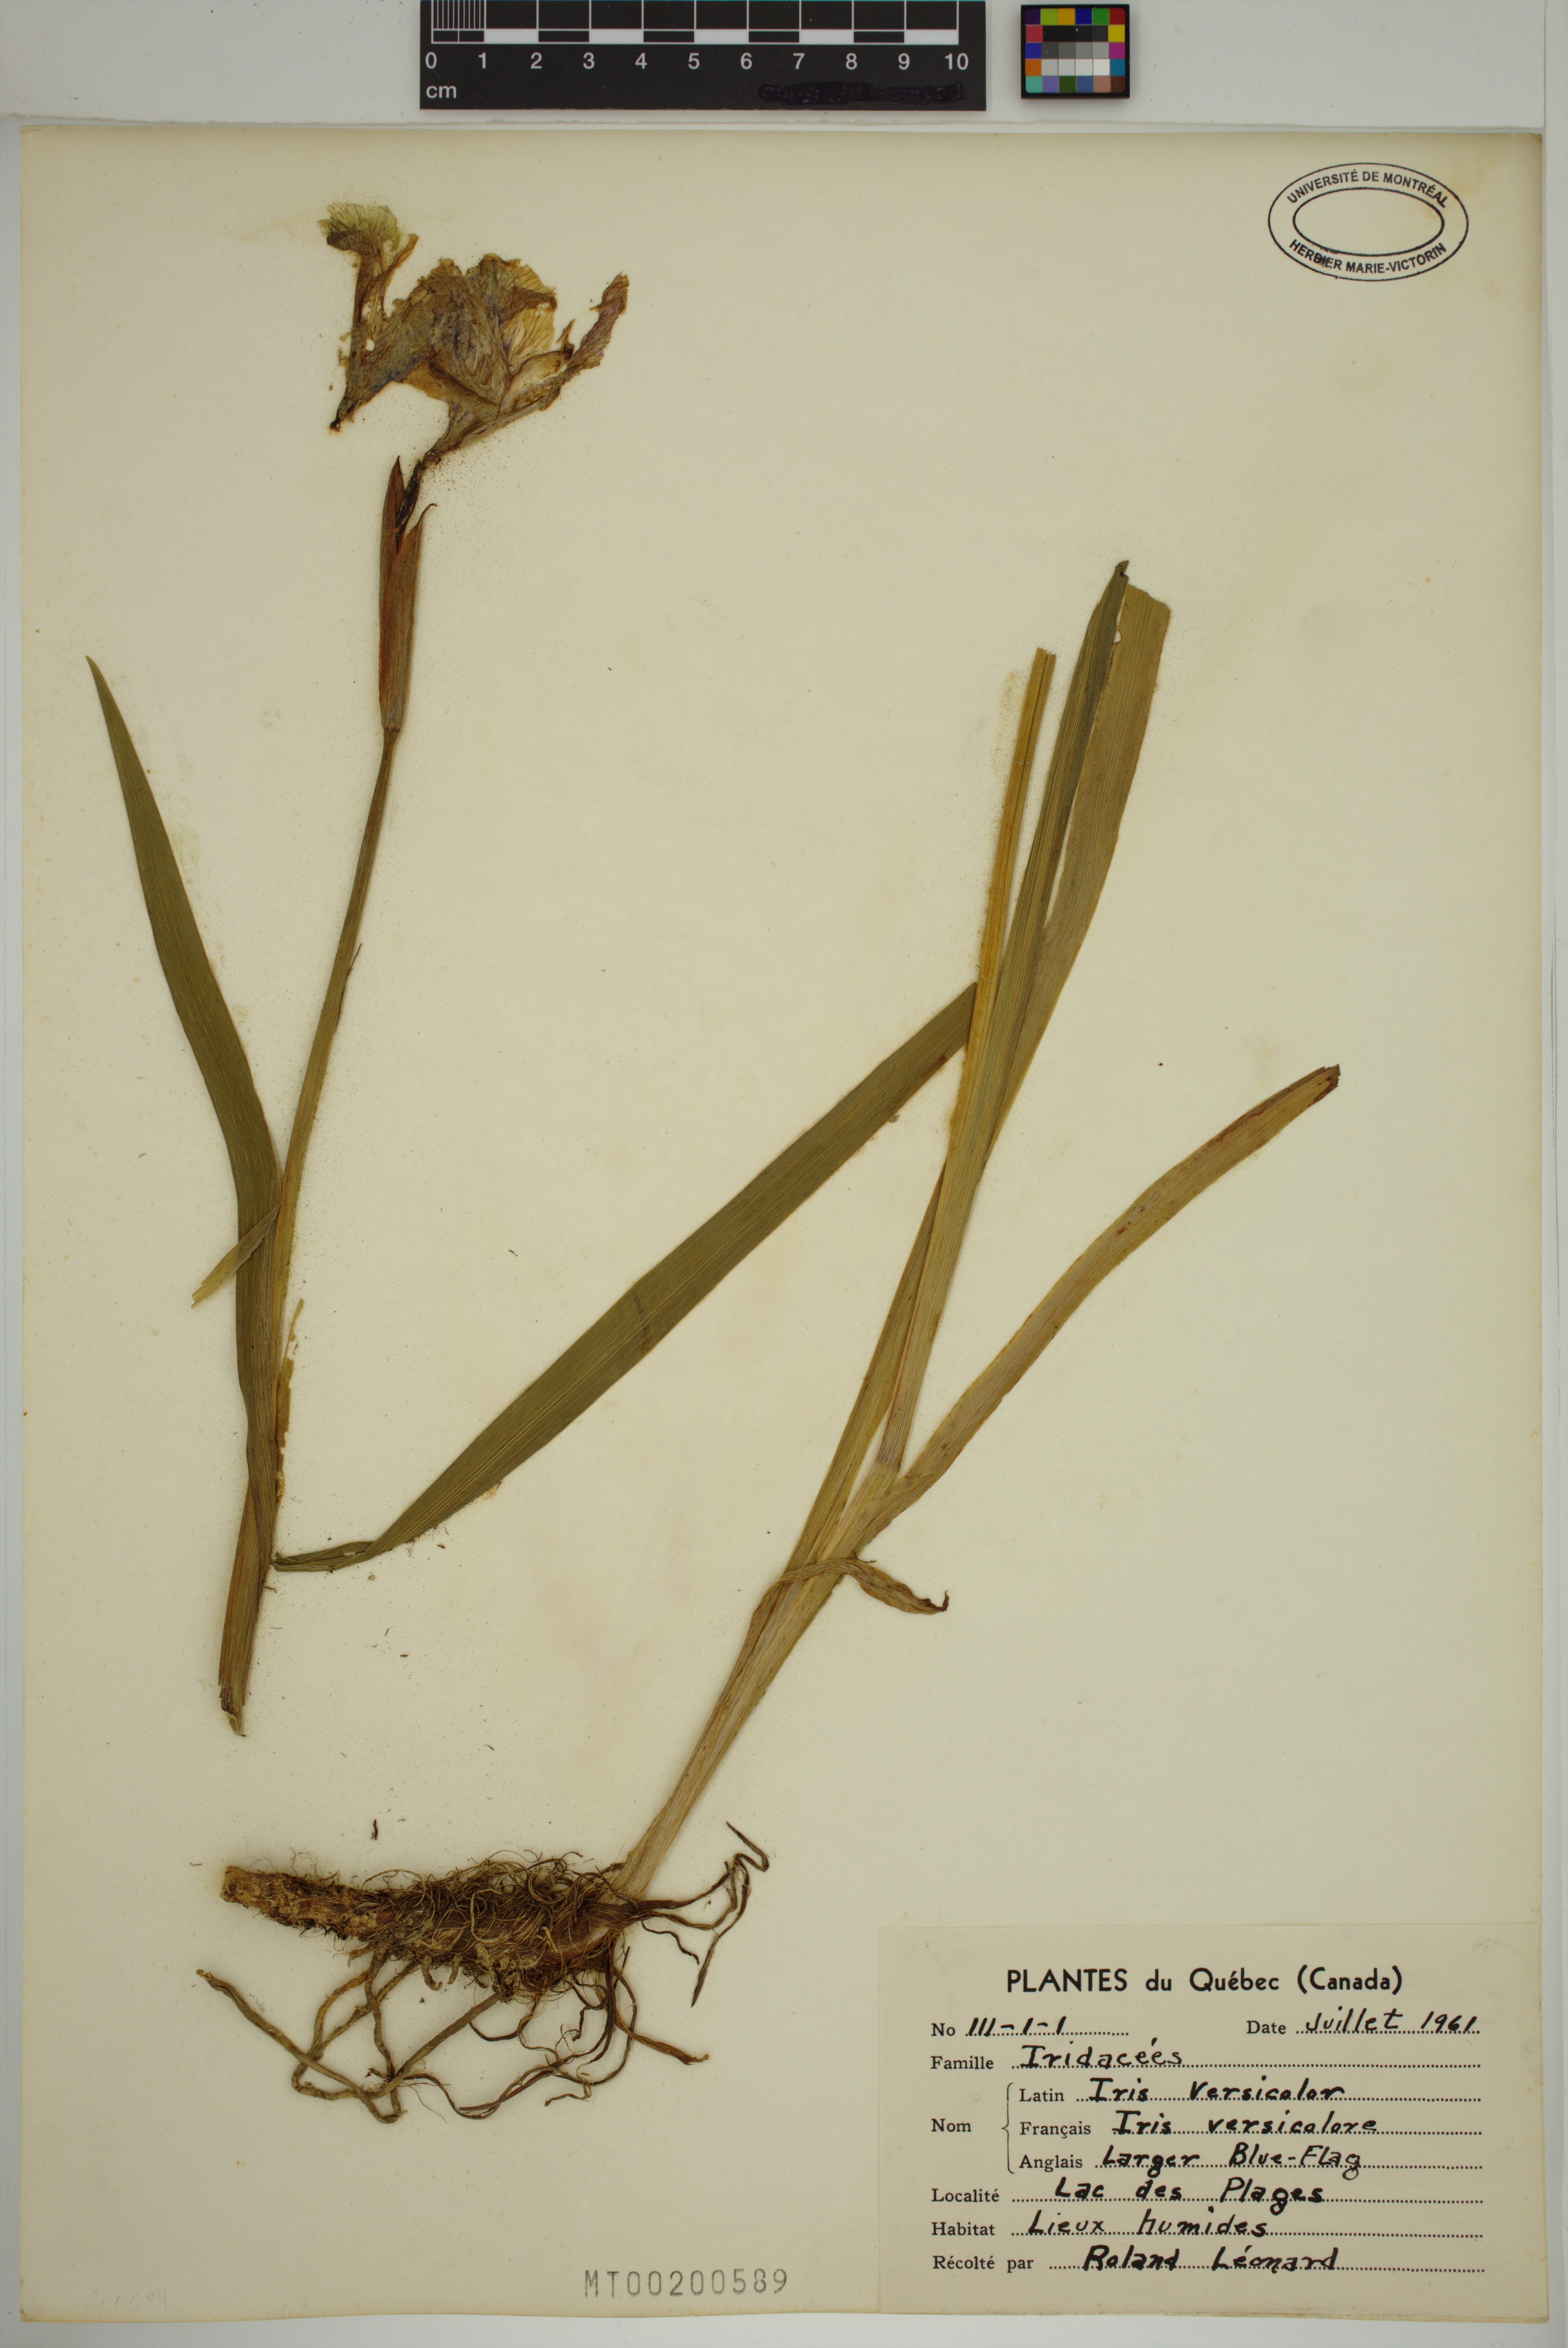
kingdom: Plantae
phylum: Tracheophyta
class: Liliopsida
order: Asparagales
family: Iridaceae
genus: Iris
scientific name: Iris versicolor
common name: Purple iris
